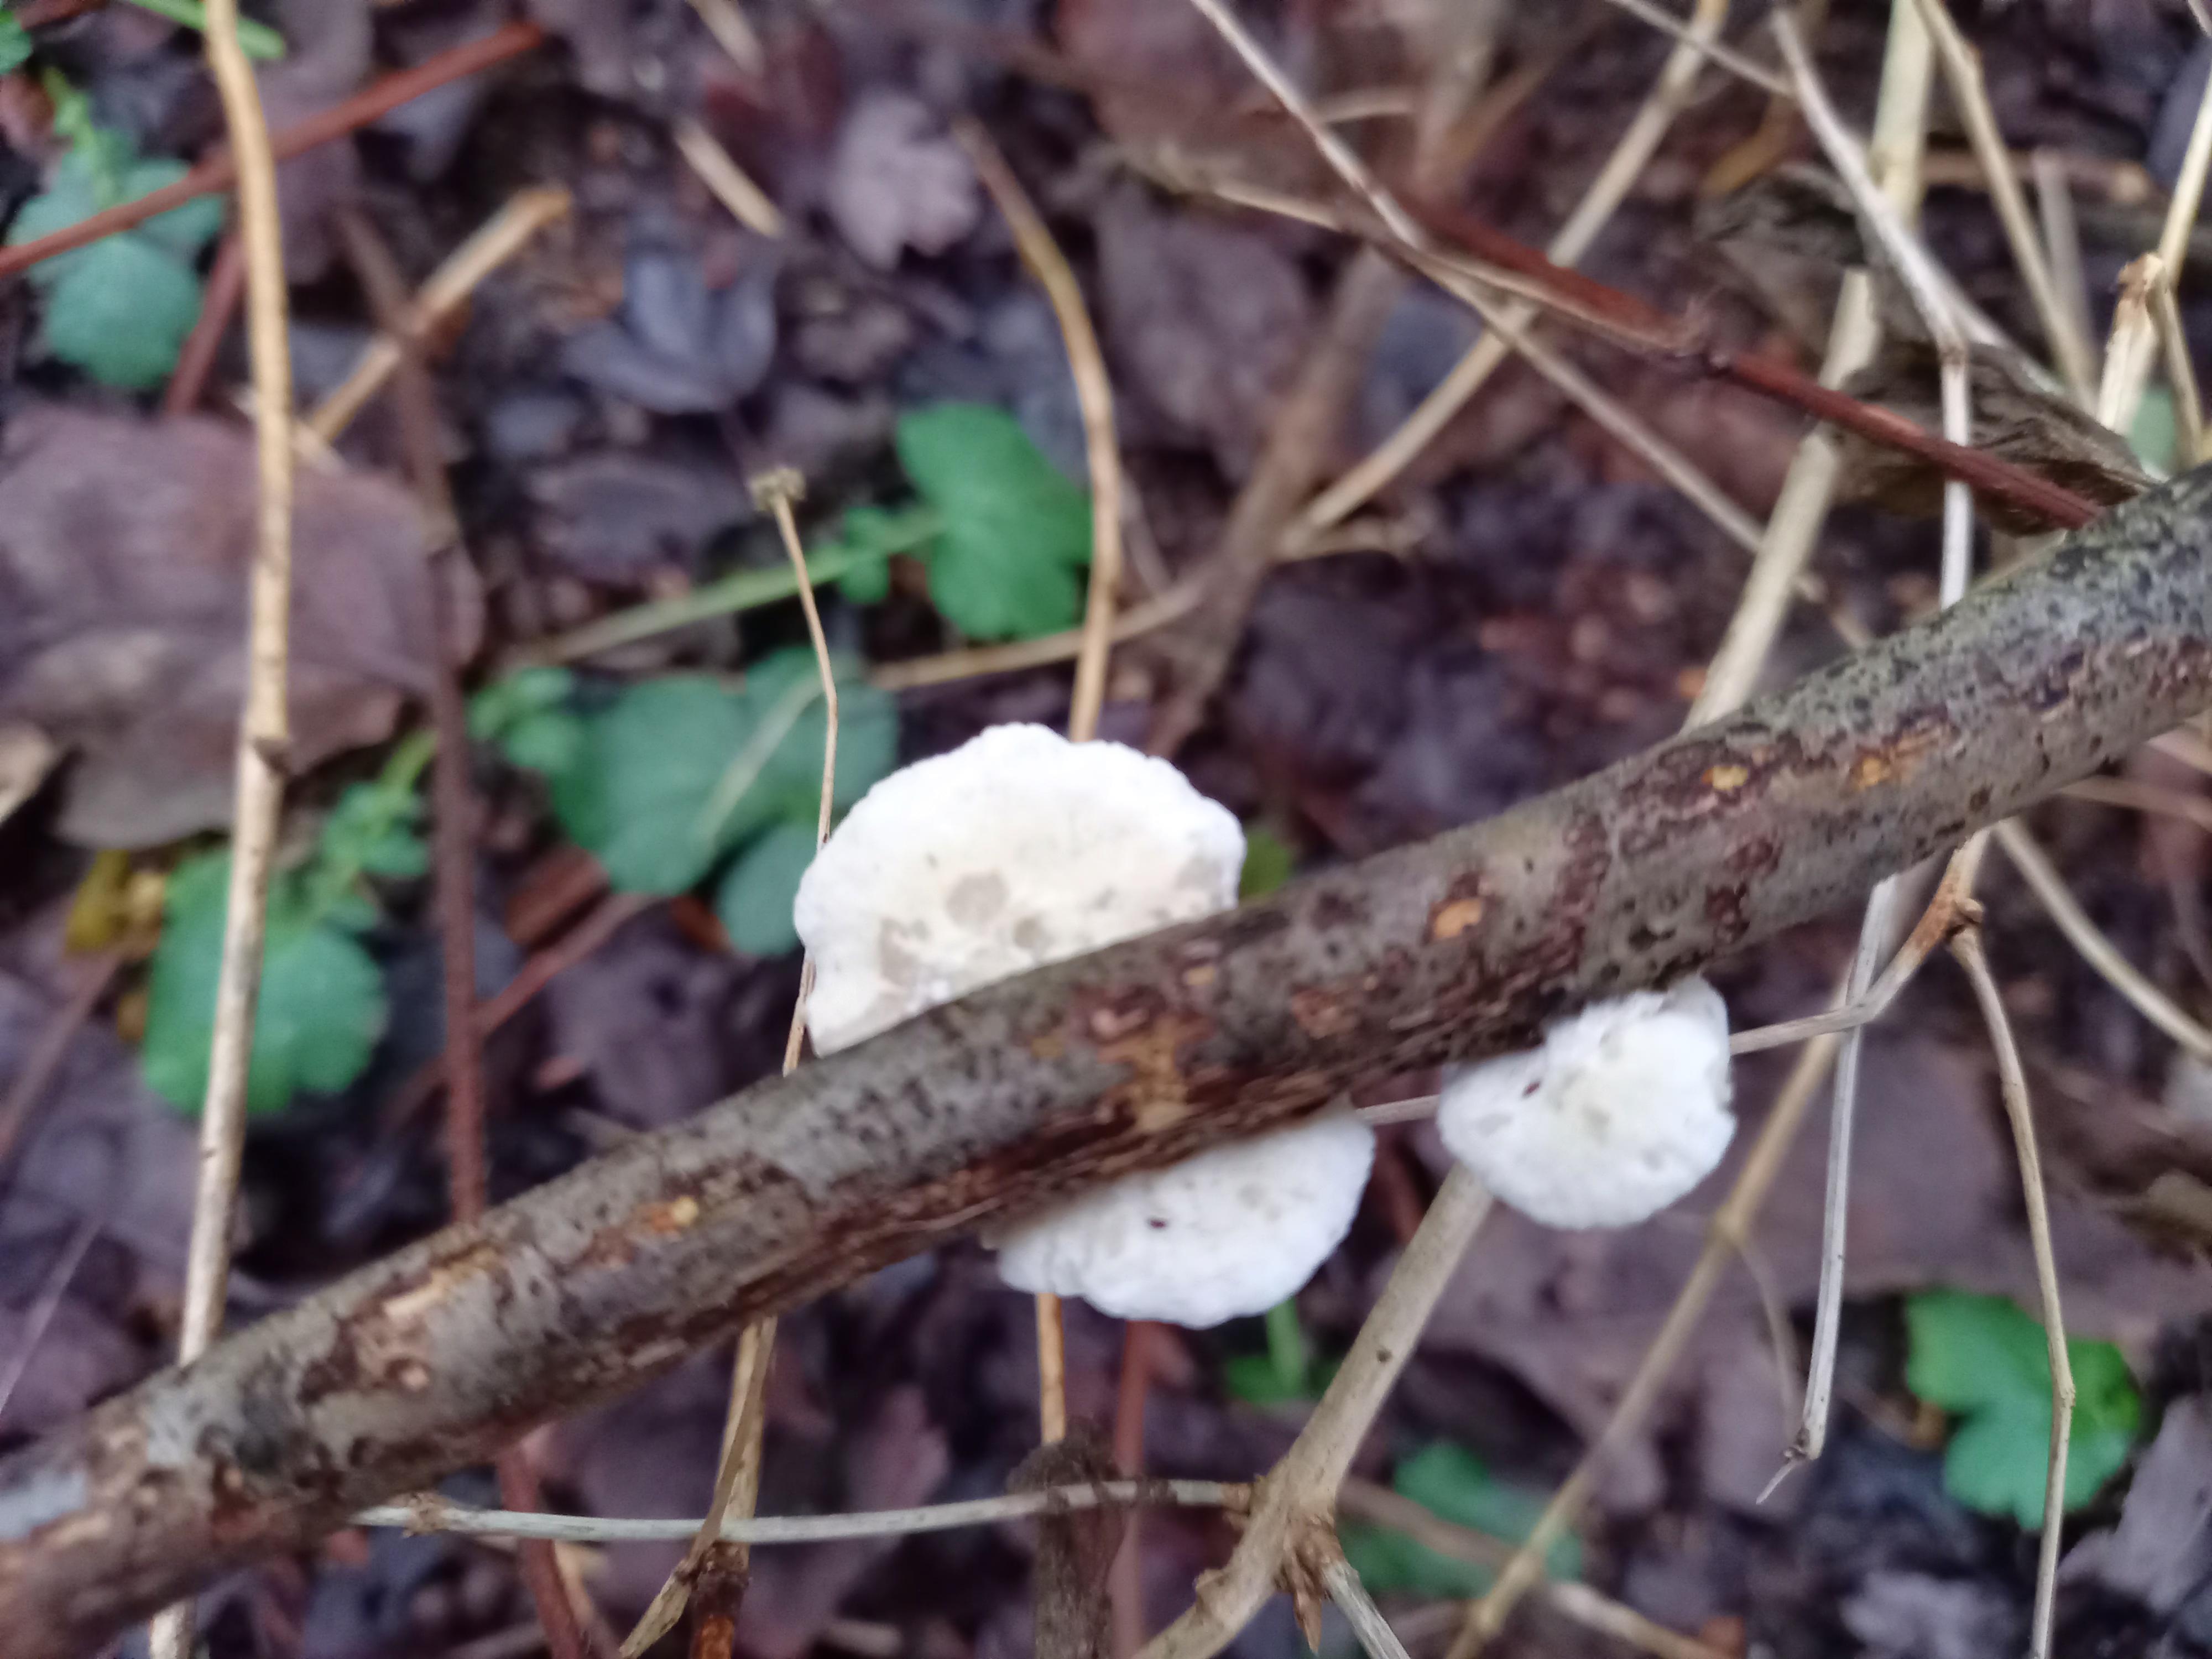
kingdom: Fungi
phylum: Basidiomycota
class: Agaricomycetes
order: Agaricales
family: Crepidotaceae
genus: Crepidotus
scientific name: Crepidotus
